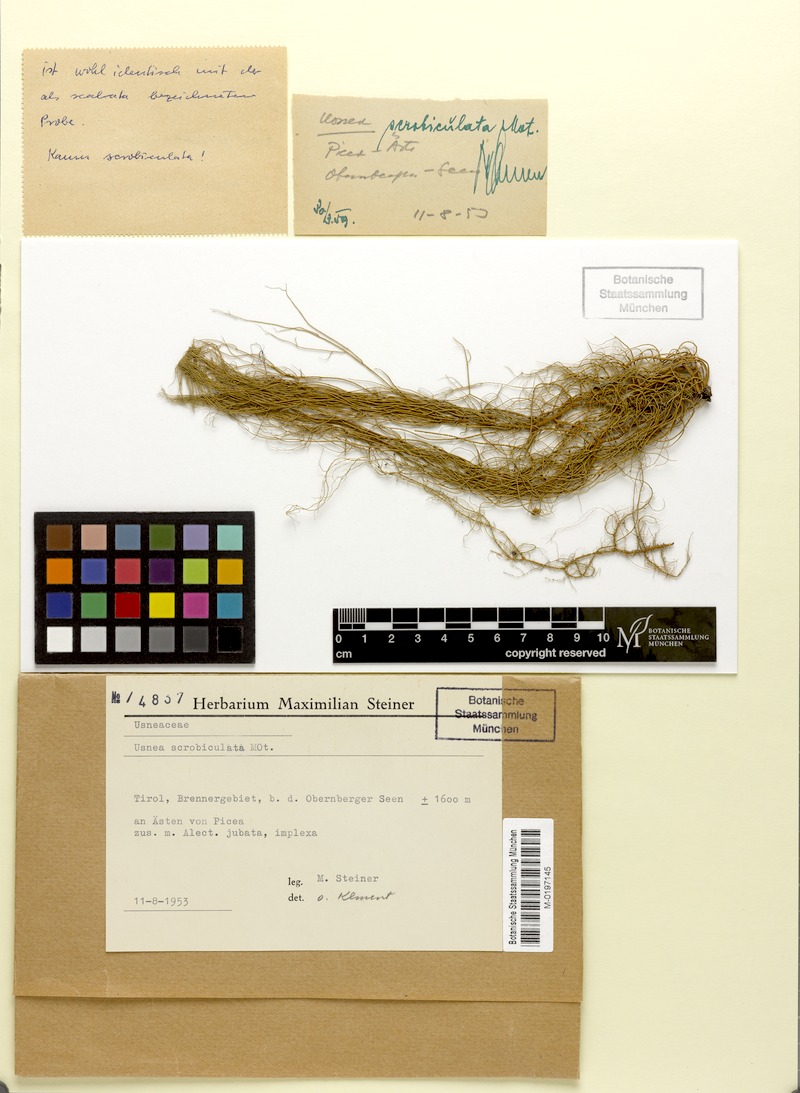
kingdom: Fungi
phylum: Ascomycota
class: Lecanoromycetes
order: Lecanorales
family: Parmeliaceae
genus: Usnea
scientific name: Usnea barbata
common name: Old man's beard lichen
